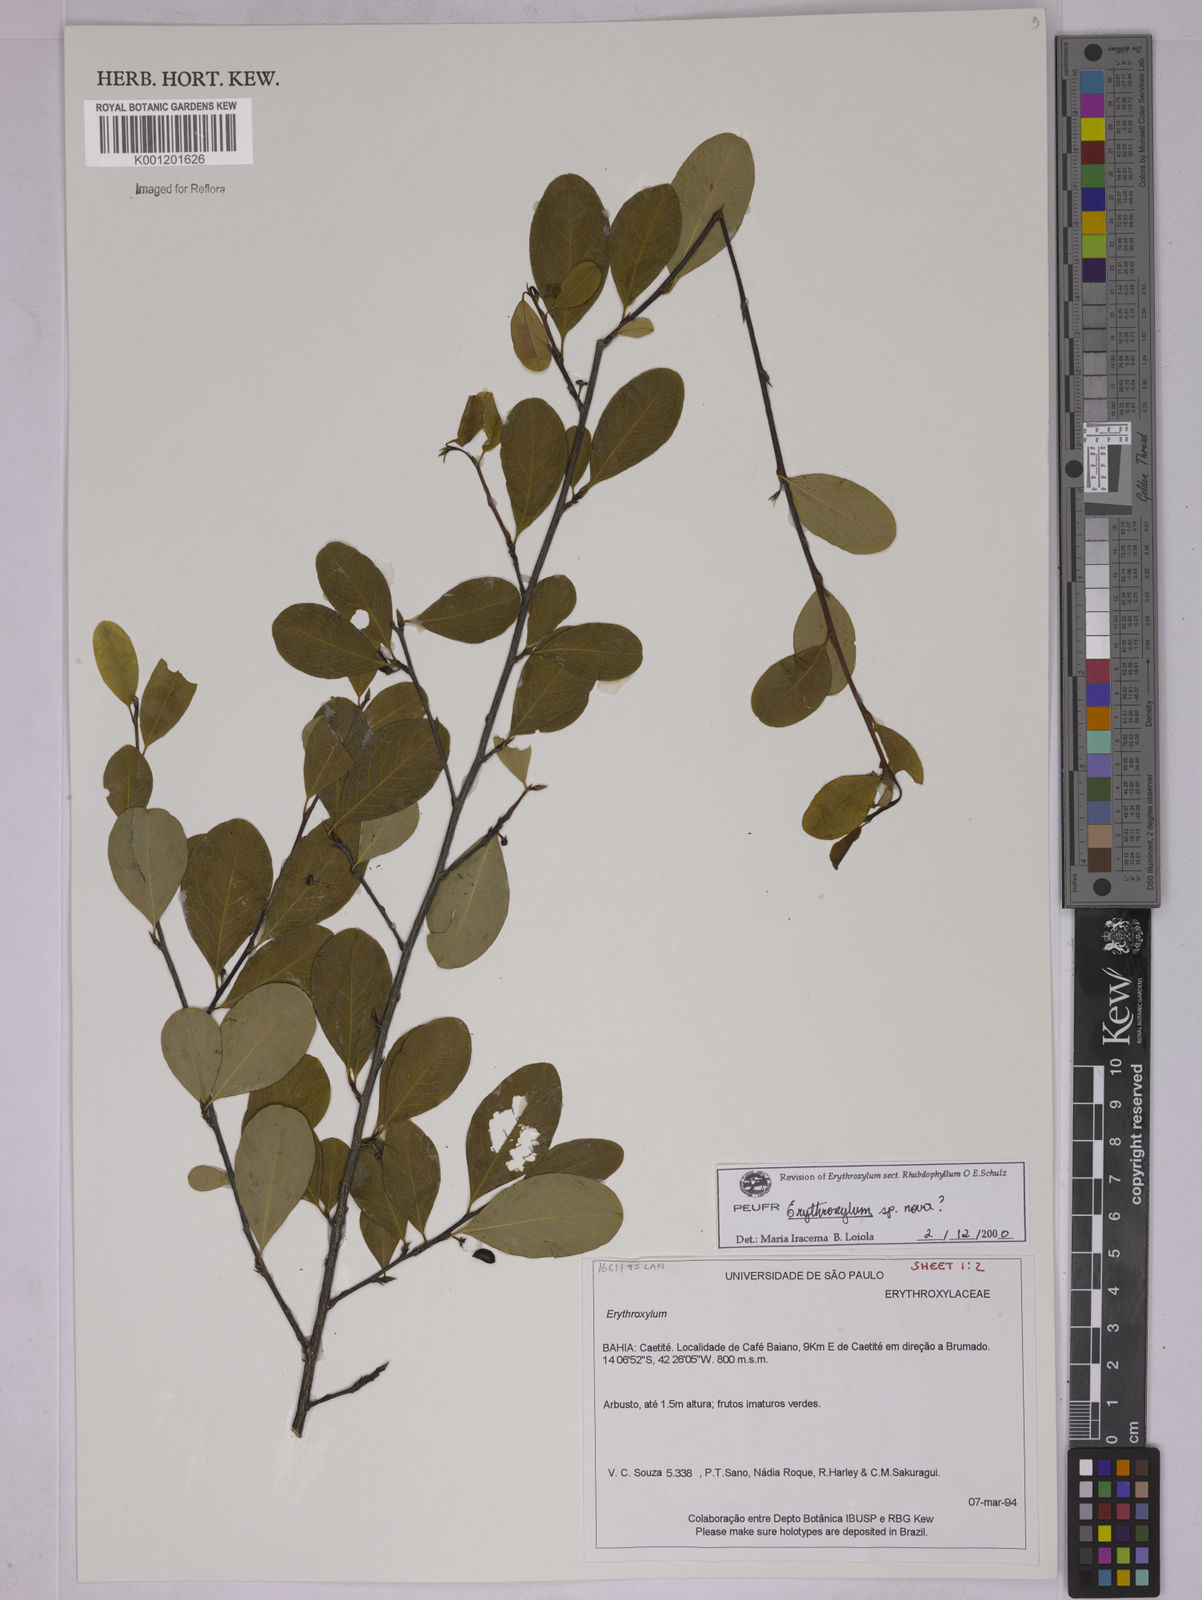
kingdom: Plantae
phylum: Tracheophyta
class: Magnoliopsida
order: Malpighiales
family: Erythroxylaceae
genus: Erythroxylum
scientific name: Erythroxylum
